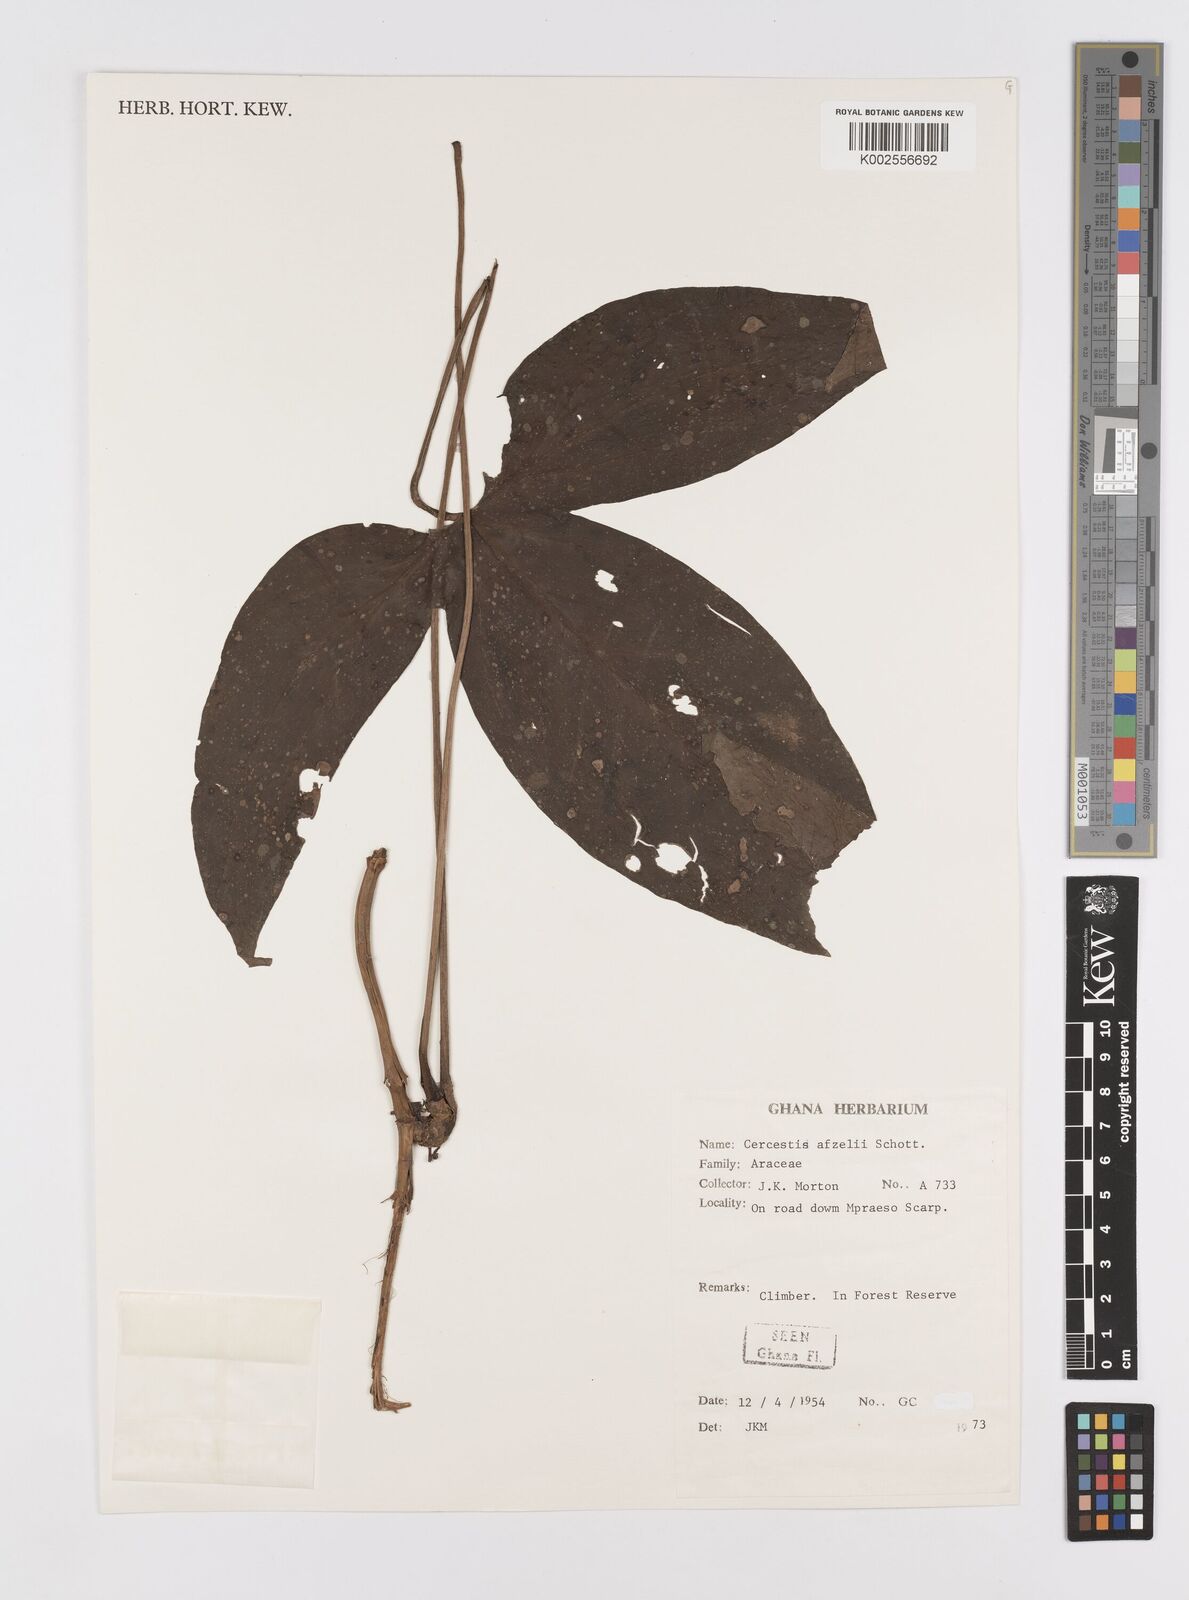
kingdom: Plantae
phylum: Tracheophyta
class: Liliopsida
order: Alismatales
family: Araceae
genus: Cercestis
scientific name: Cercestis afzelii
